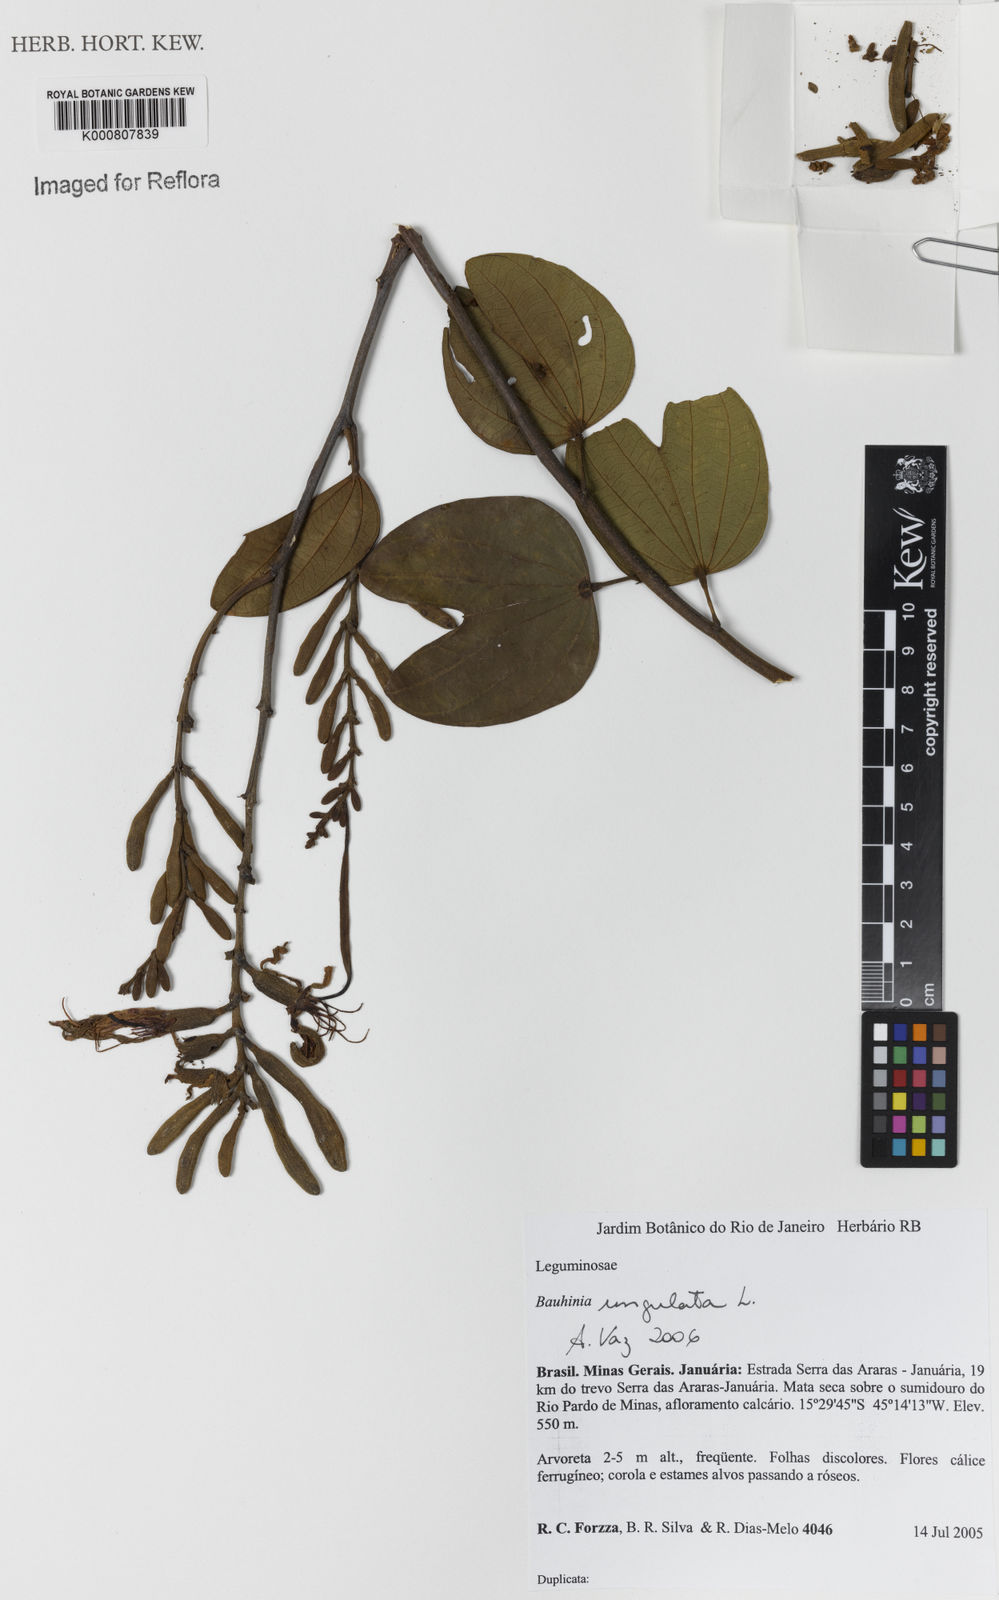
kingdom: Plantae
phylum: Tracheophyta
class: Magnoliopsida
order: Fabales
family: Fabaceae
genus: Bauhinia
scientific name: Bauhinia ungulata
